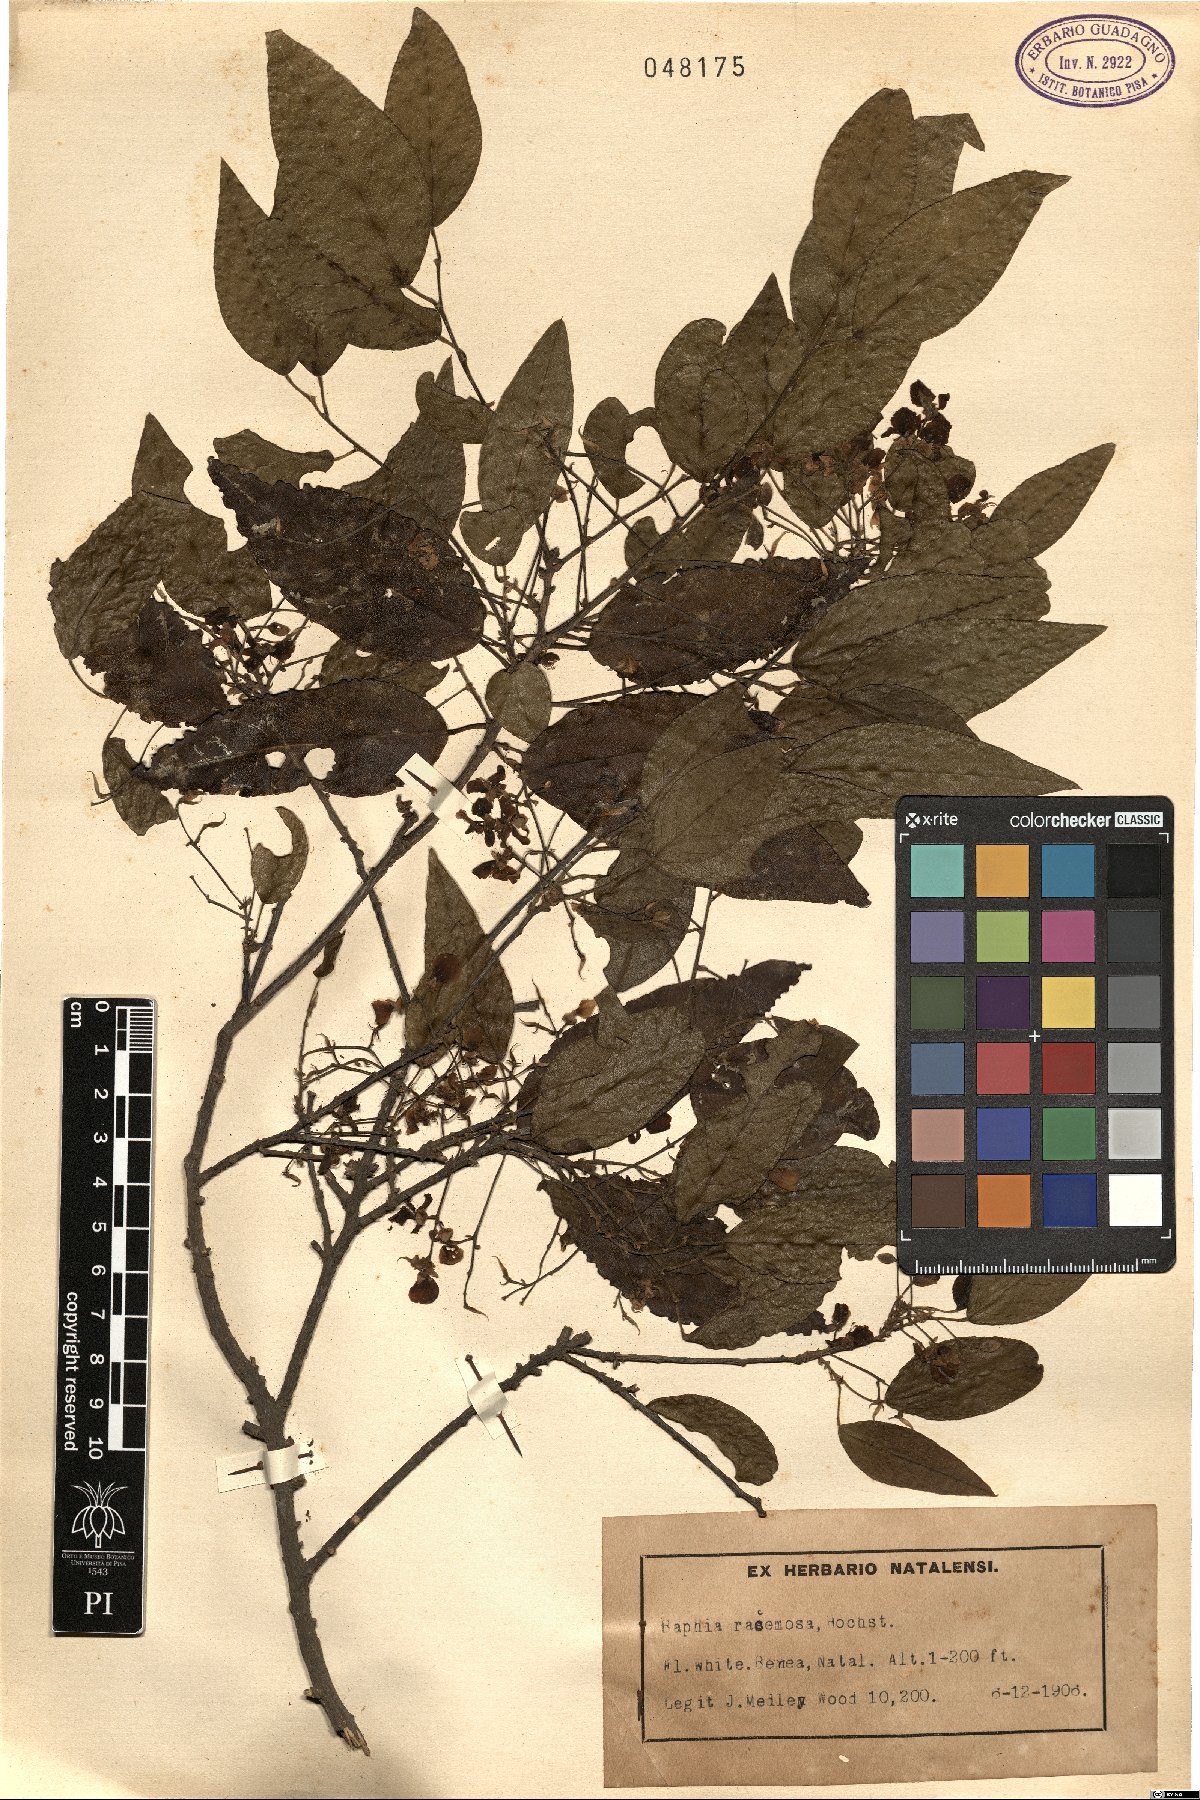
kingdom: Plantae
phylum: Tracheophyta
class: Magnoliopsida
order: Fabales
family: Fabaceae
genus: Bracteolaria
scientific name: Bracteolaria racemosa
